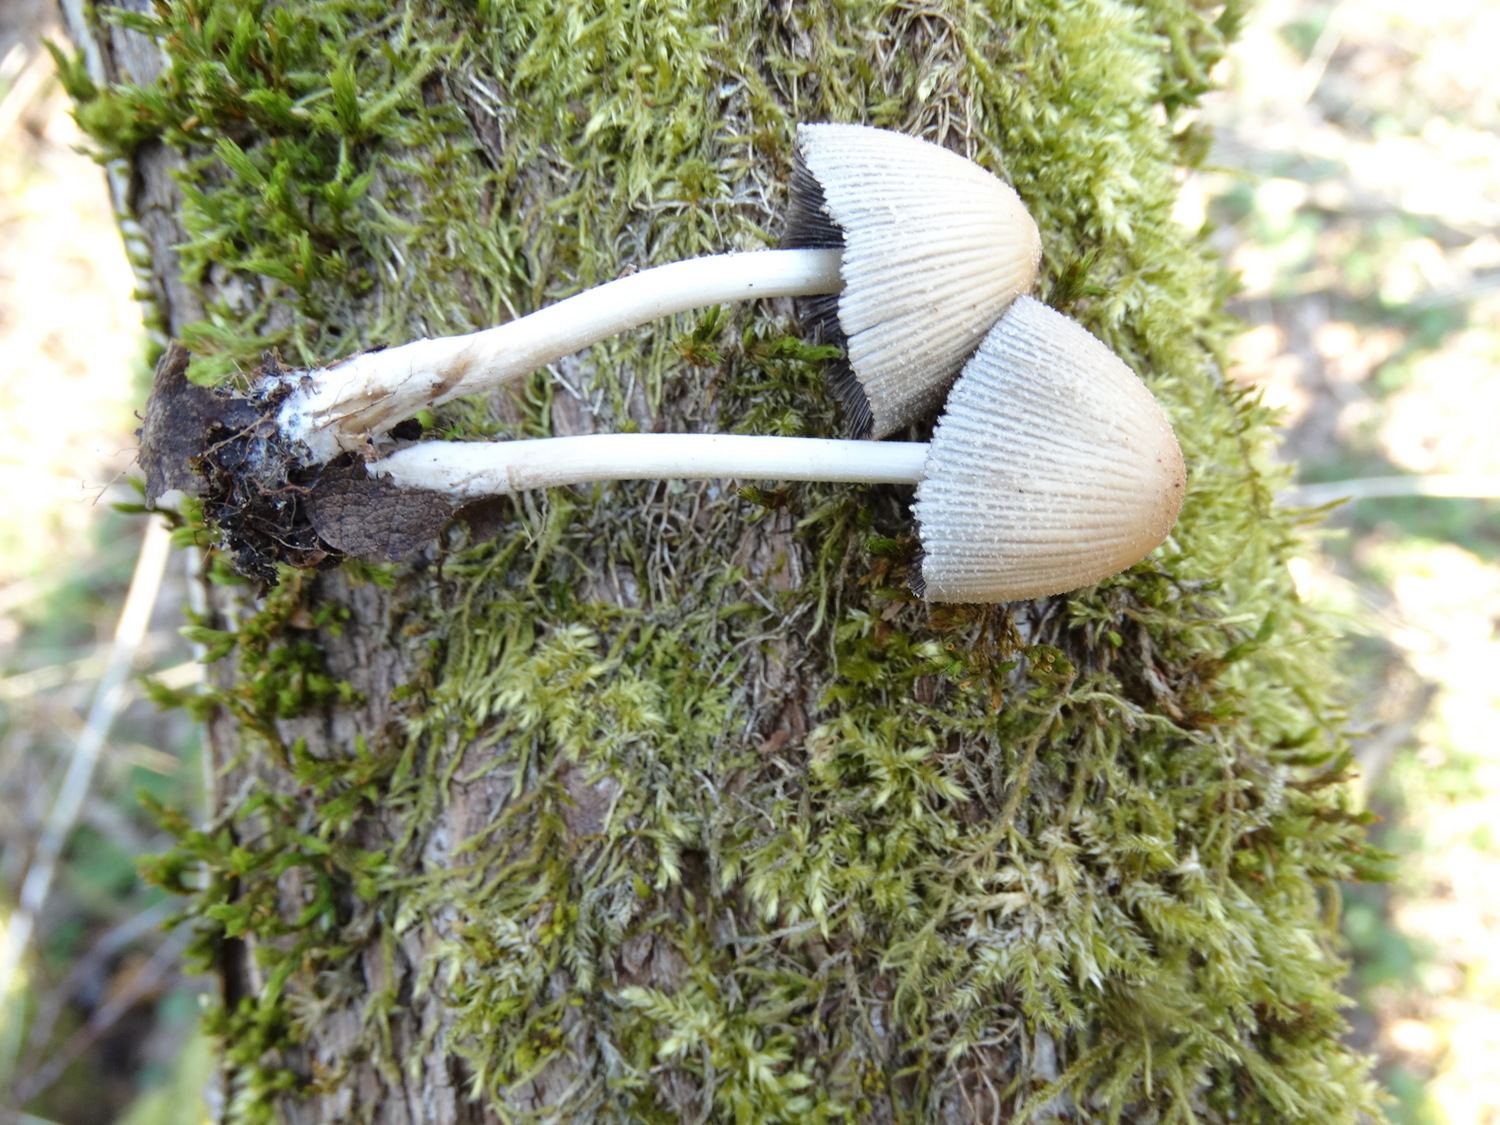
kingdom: Fungi
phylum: Basidiomycota
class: Agaricomycetes
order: Agaricales
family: Psathyrellaceae
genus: Coprinellus
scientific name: Coprinellus micaceus
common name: glimmer-blækhat
